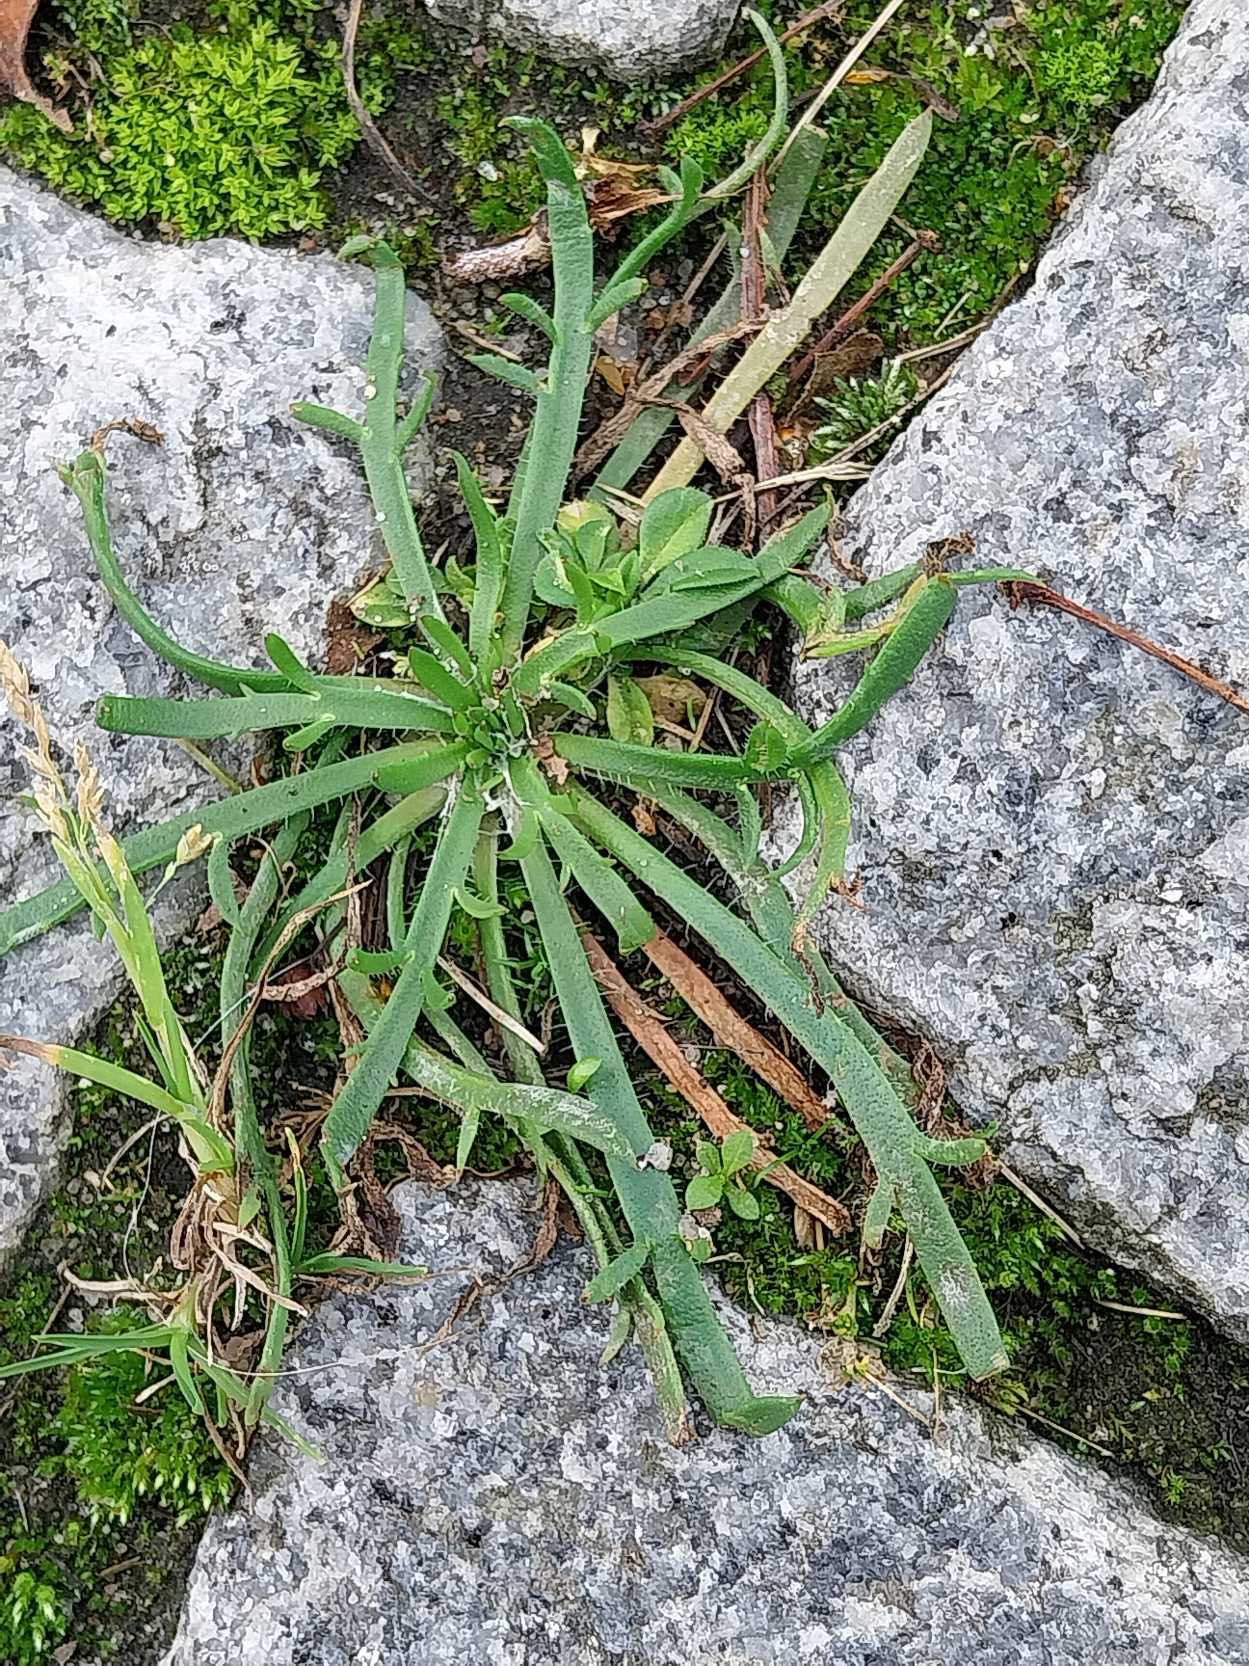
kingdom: Plantae
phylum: Tracheophyta
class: Magnoliopsida
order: Lamiales
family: Plantaginaceae
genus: Plantago
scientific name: Plantago coronopus
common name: Fliget vejbred
